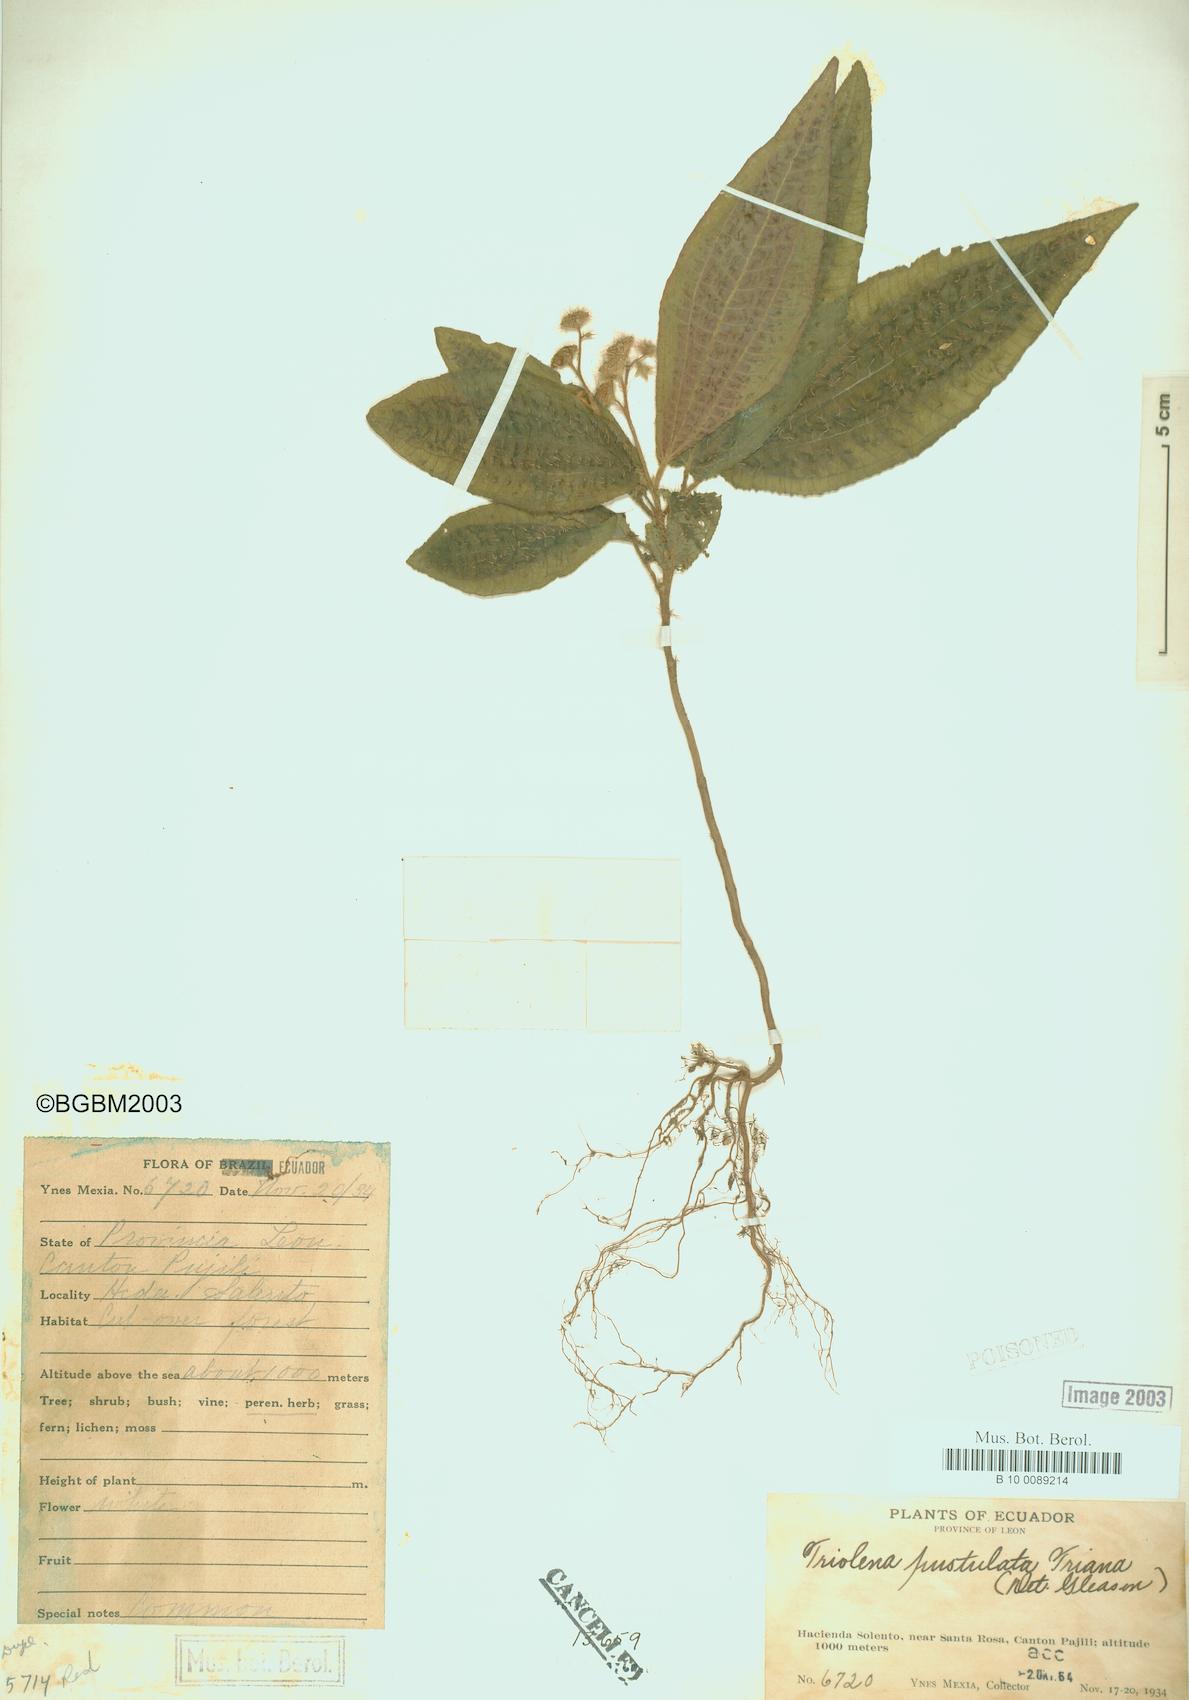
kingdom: Plantae
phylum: Tracheophyta
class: Magnoliopsida
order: Myrtales
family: Melastomataceae
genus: Triolena
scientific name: Triolena pustulata
